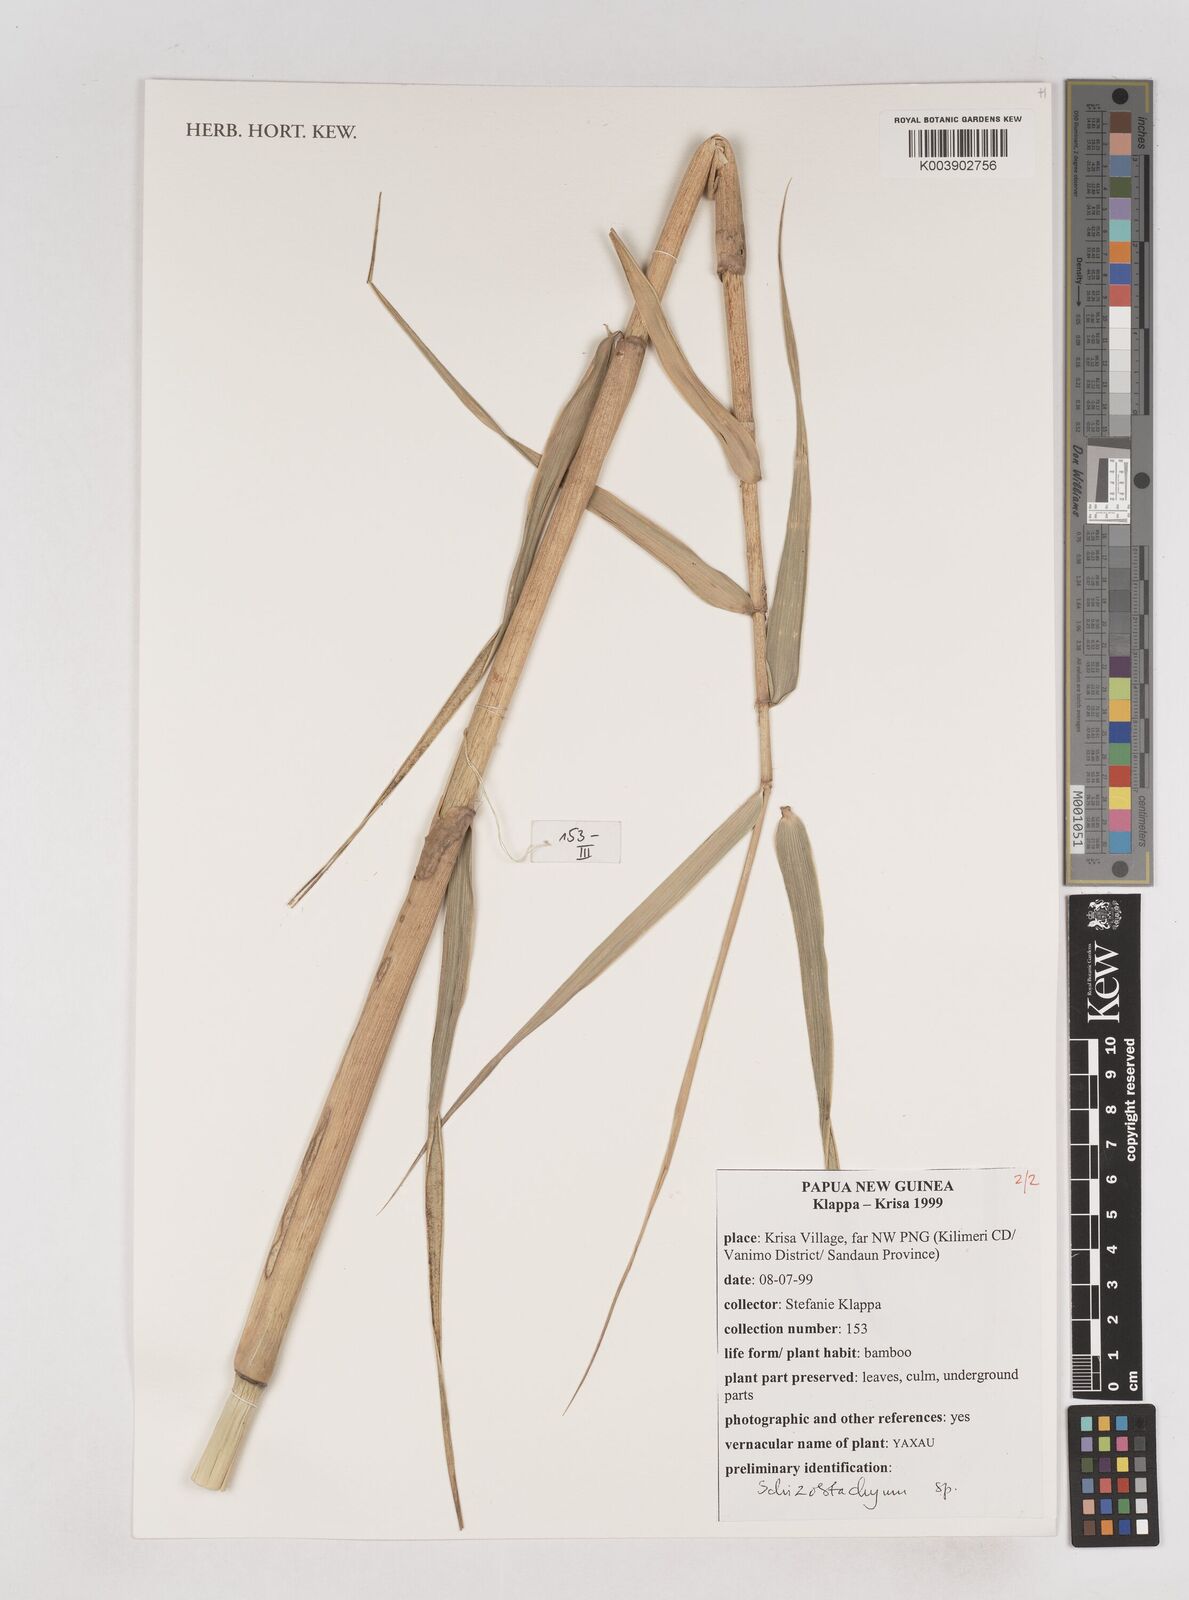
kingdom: Plantae
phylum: Tracheophyta
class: Liliopsida
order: Poales
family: Poaceae
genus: Schizostachyum
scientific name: Schizostachyum
